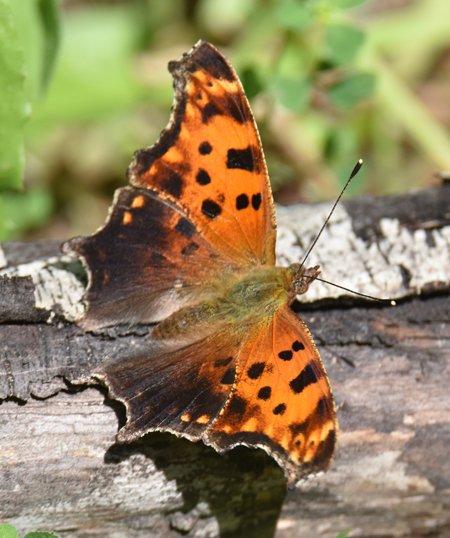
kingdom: Animalia
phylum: Arthropoda
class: Insecta
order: Lepidoptera
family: Nymphalidae
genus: Polygonia
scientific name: Polygonia comma
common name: Eastern Comma
